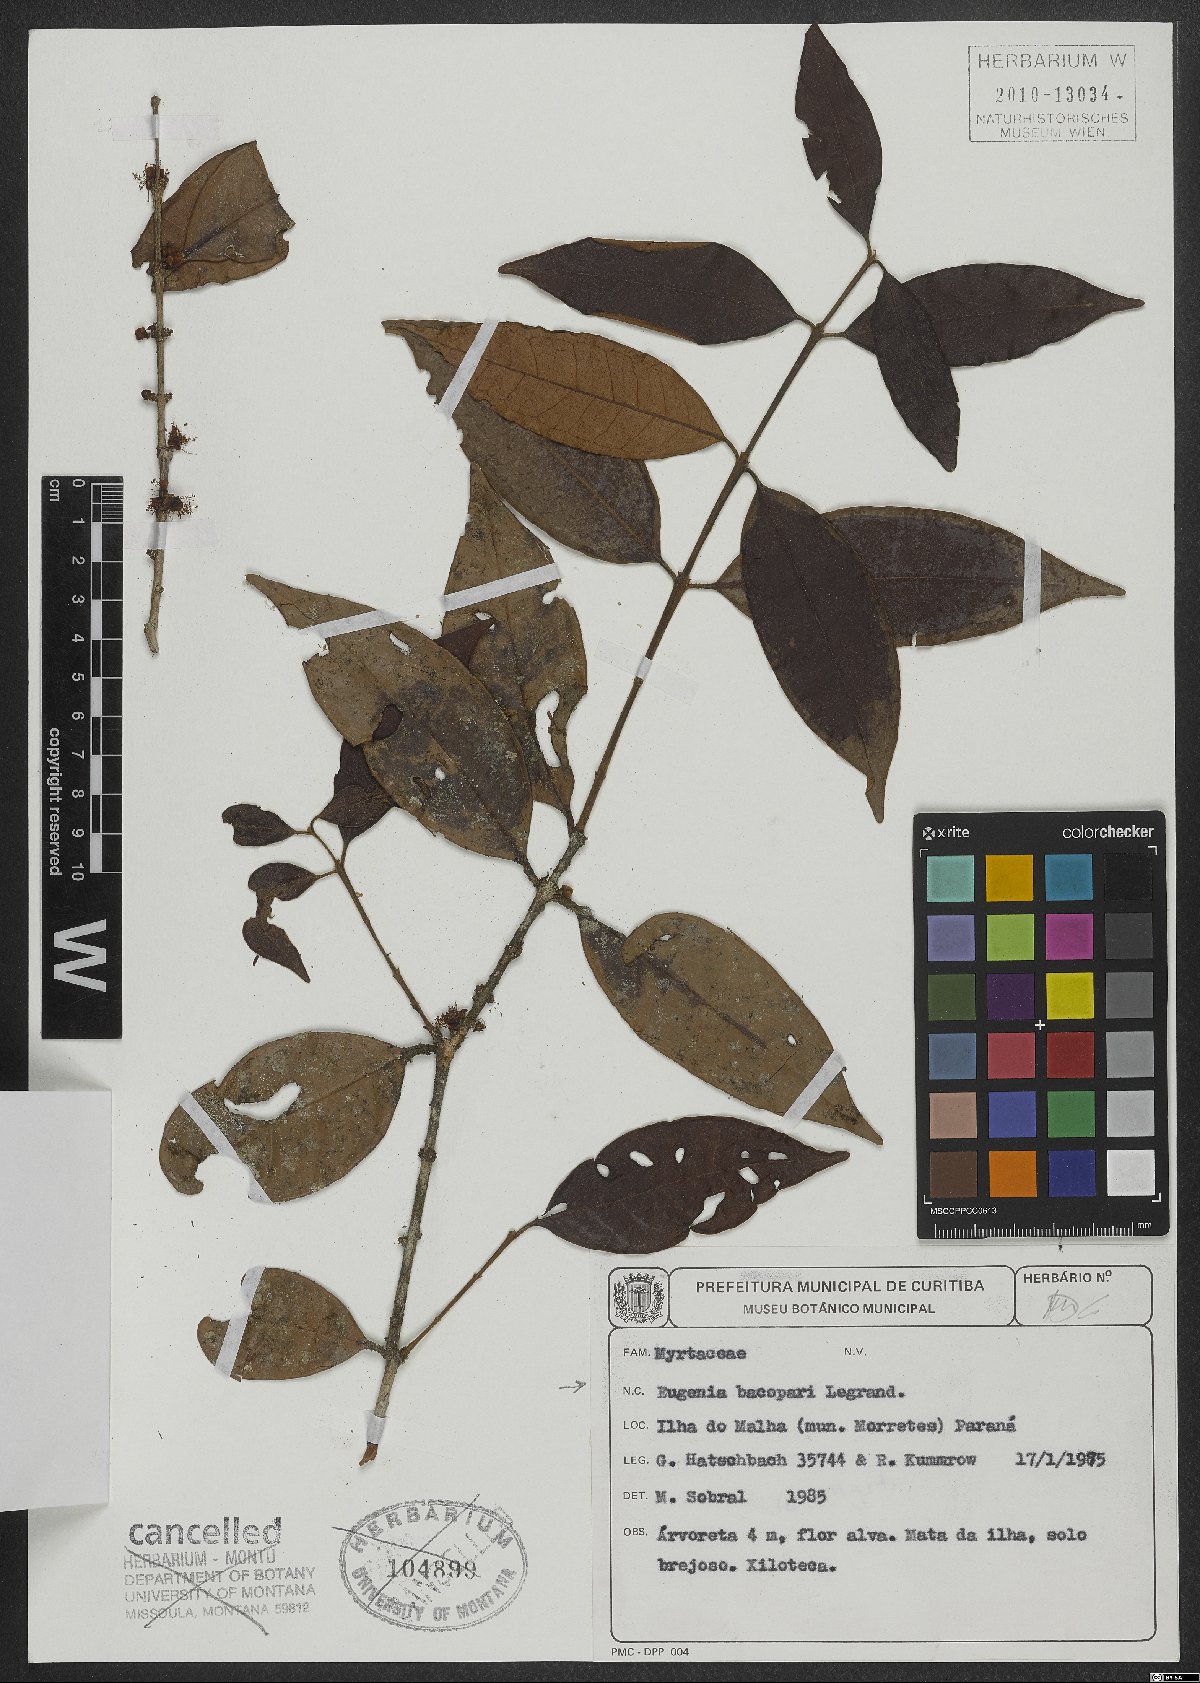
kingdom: Plantae
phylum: Tracheophyta
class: Magnoliopsida
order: Myrtales
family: Myrtaceae
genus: Eugenia
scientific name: Eugenia bacopari
